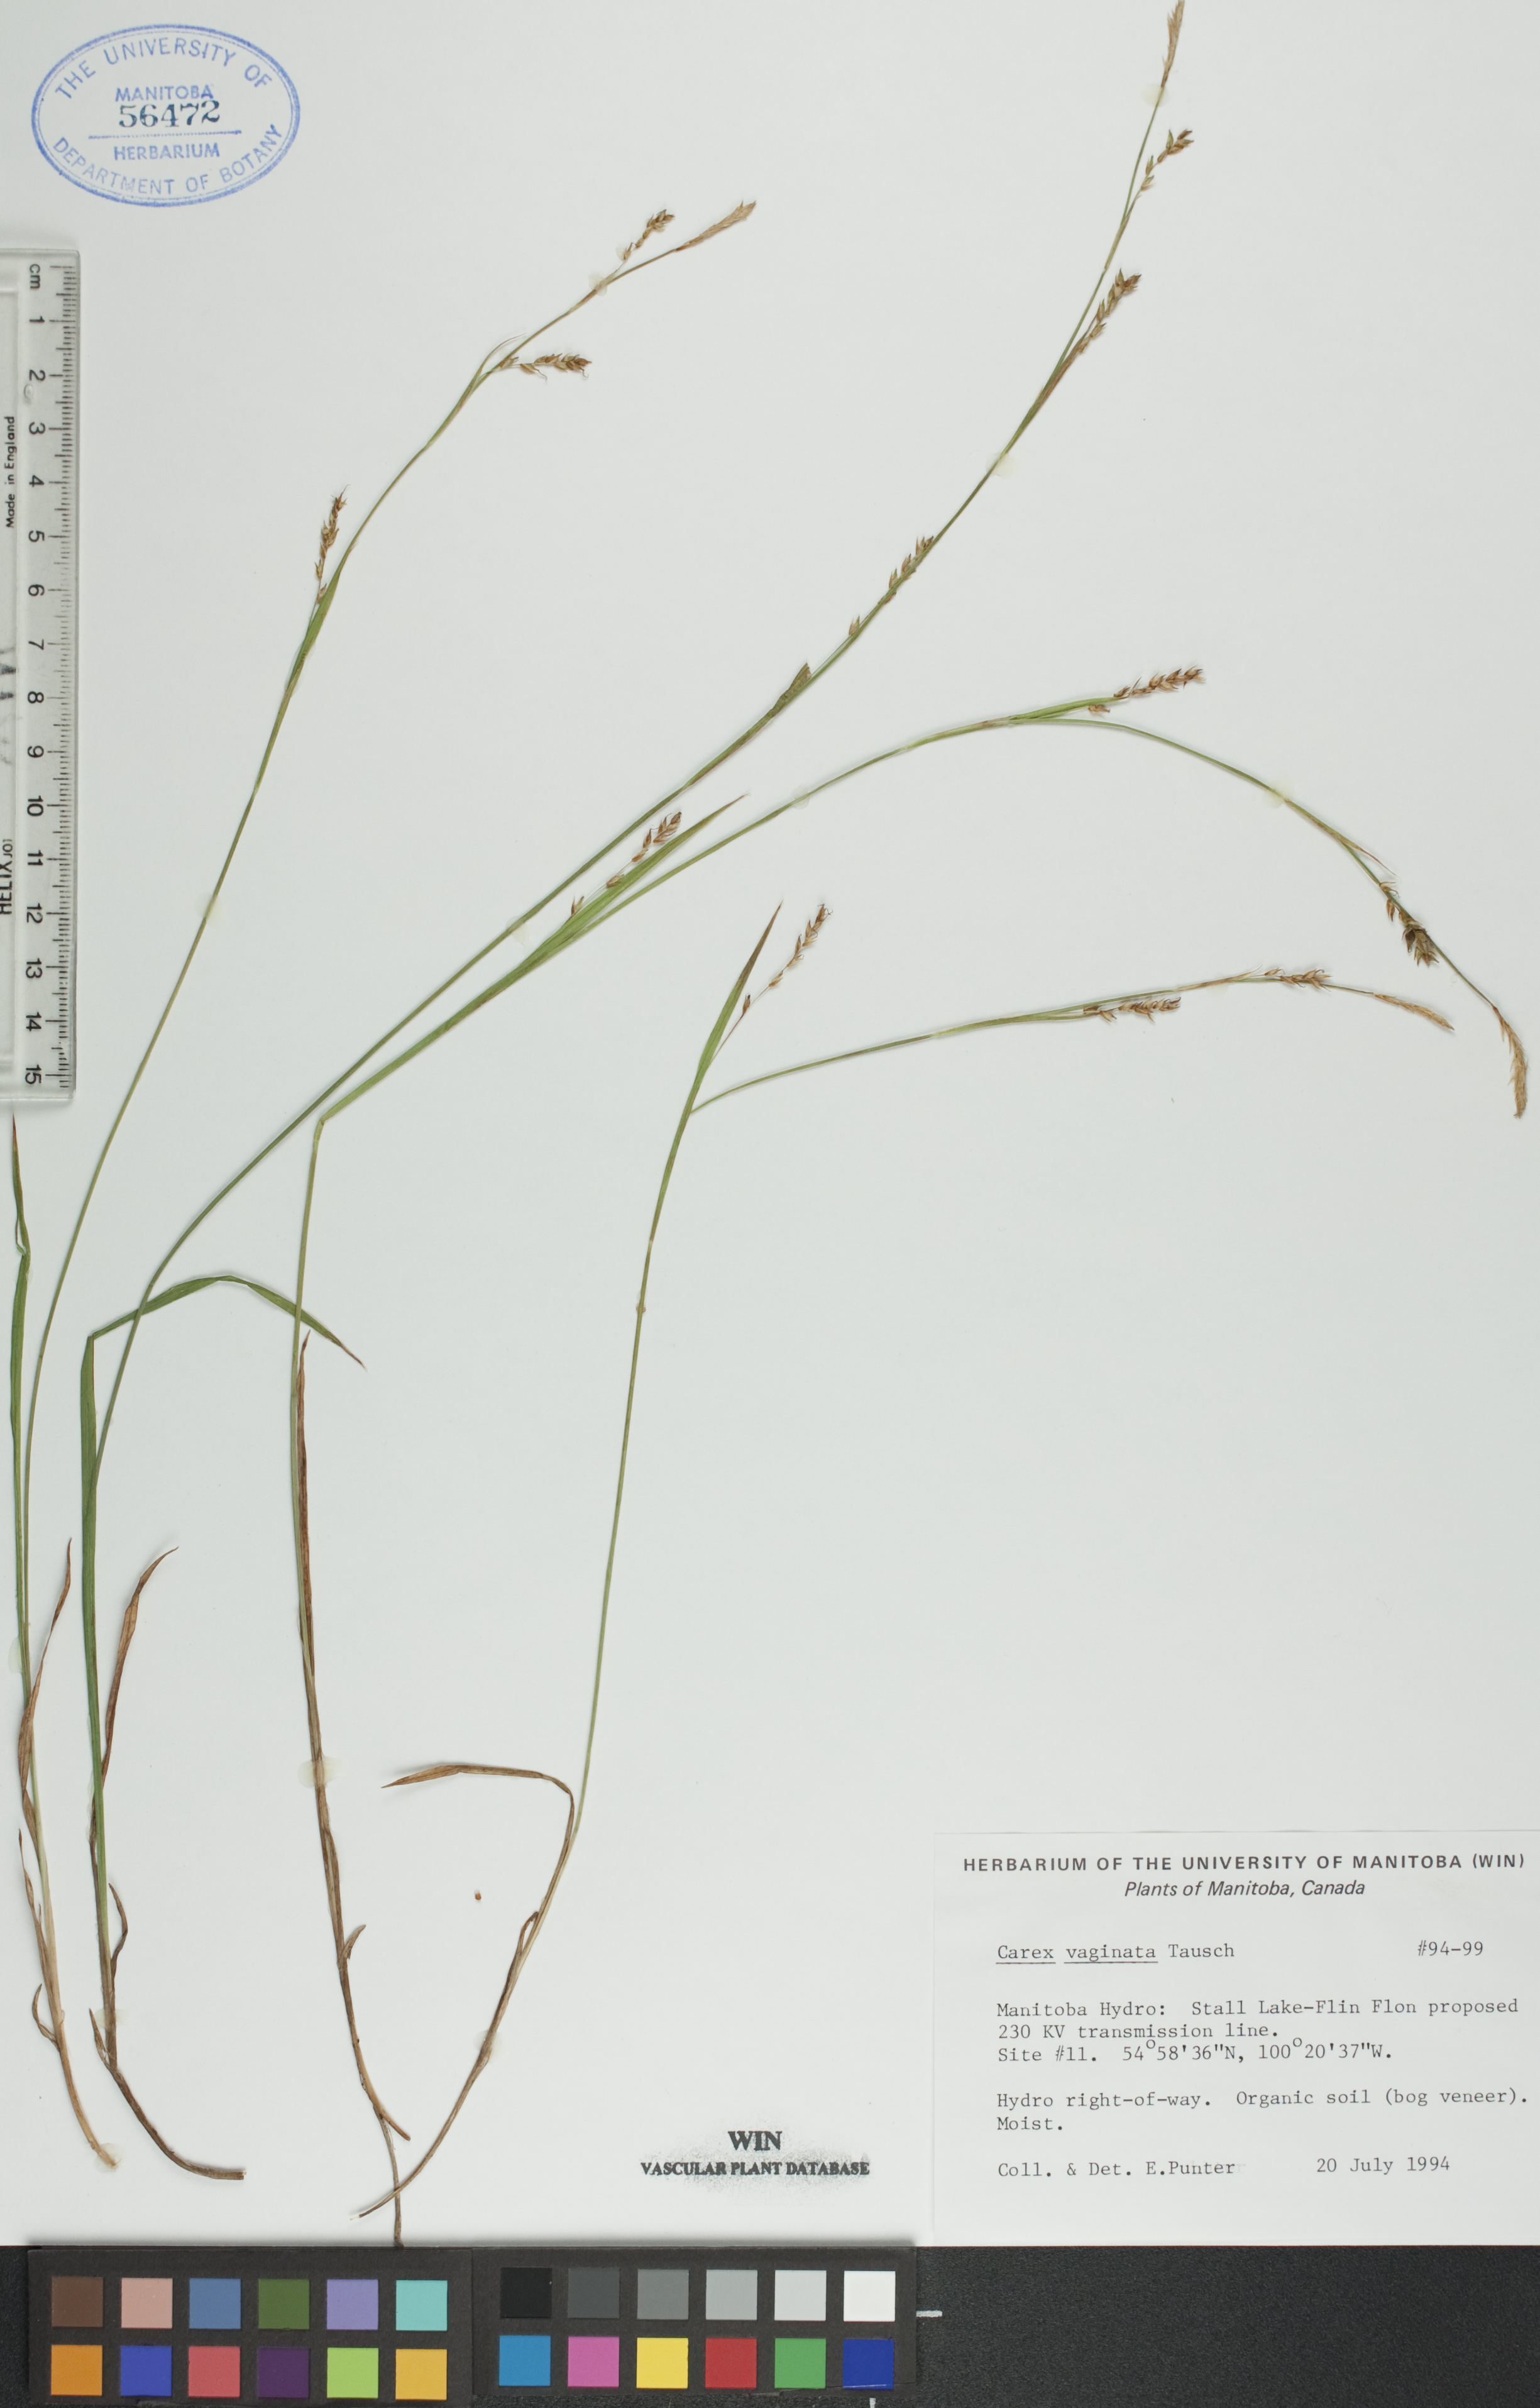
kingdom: Plantae
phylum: Tracheophyta
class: Liliopsida
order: Poales
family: Cyperaceae
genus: Carex
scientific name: Carex vaginata
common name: Sheathed sedge
